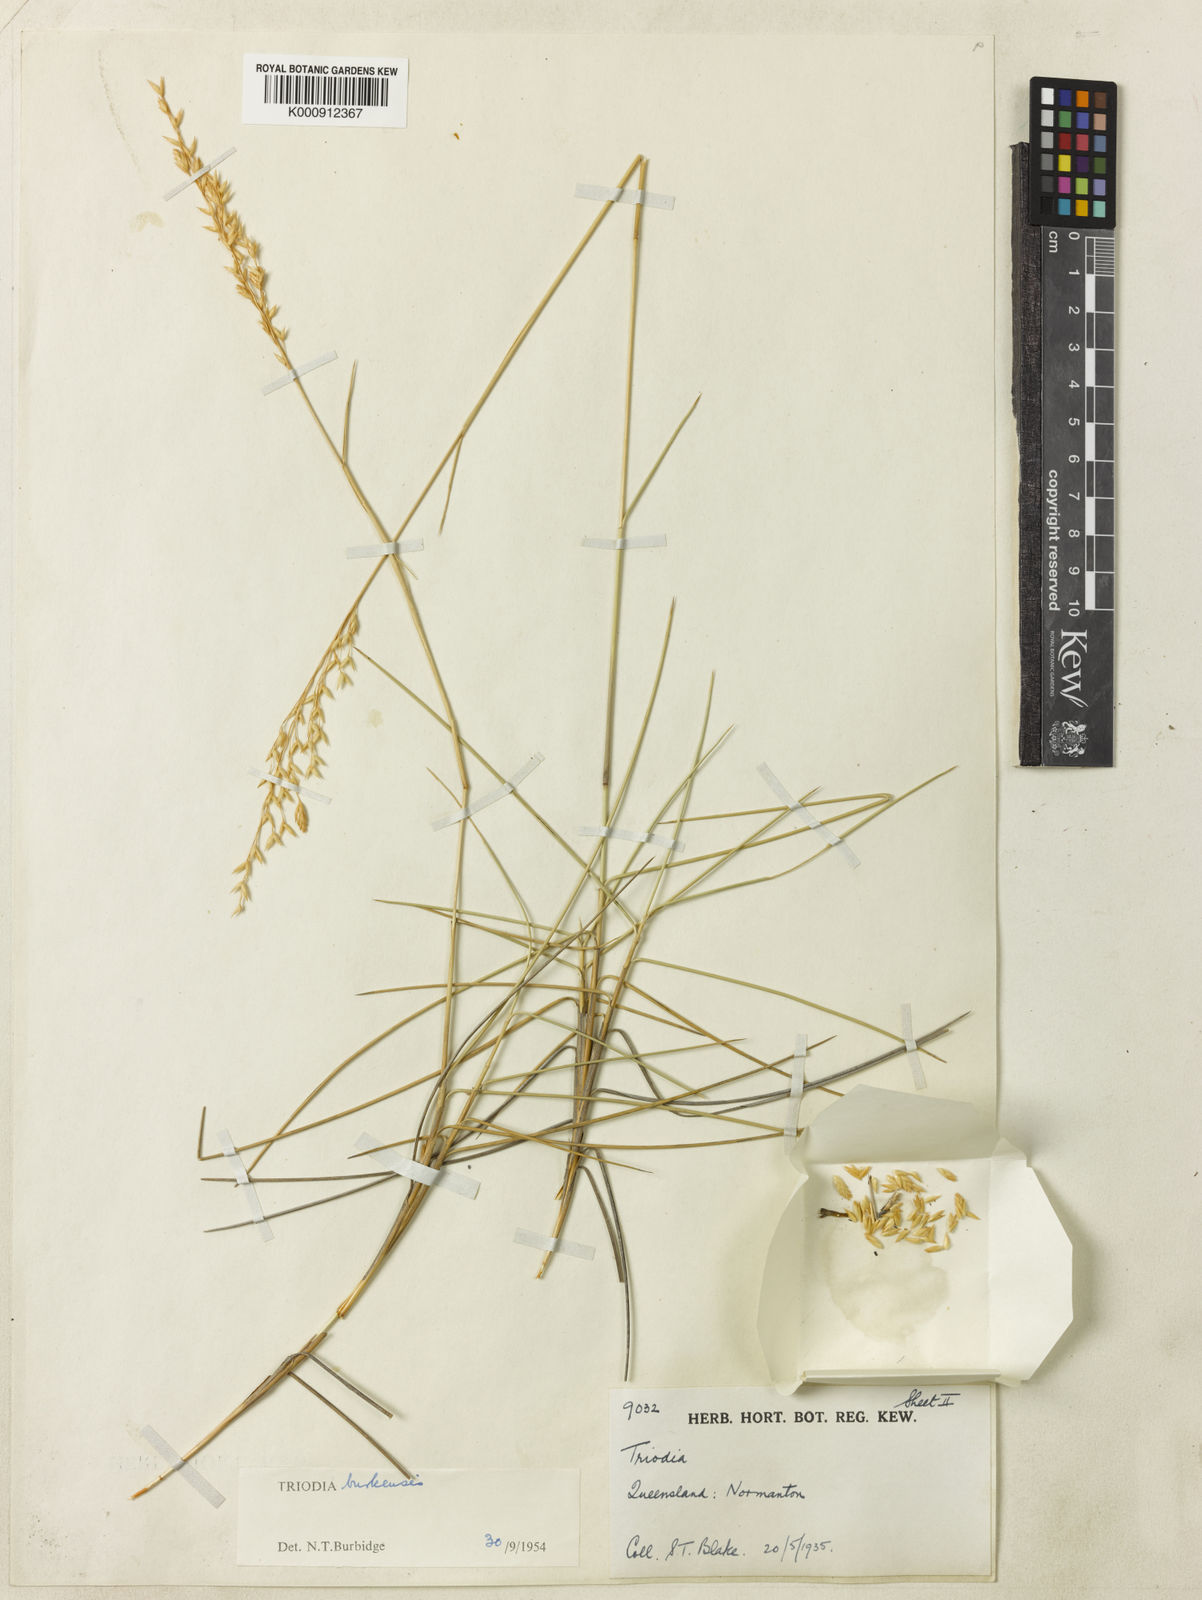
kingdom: Plantae
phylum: Tracheophyta
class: Liliopsida
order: Poales
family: Poaceae
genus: Triodia
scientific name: Triodia brizoides
